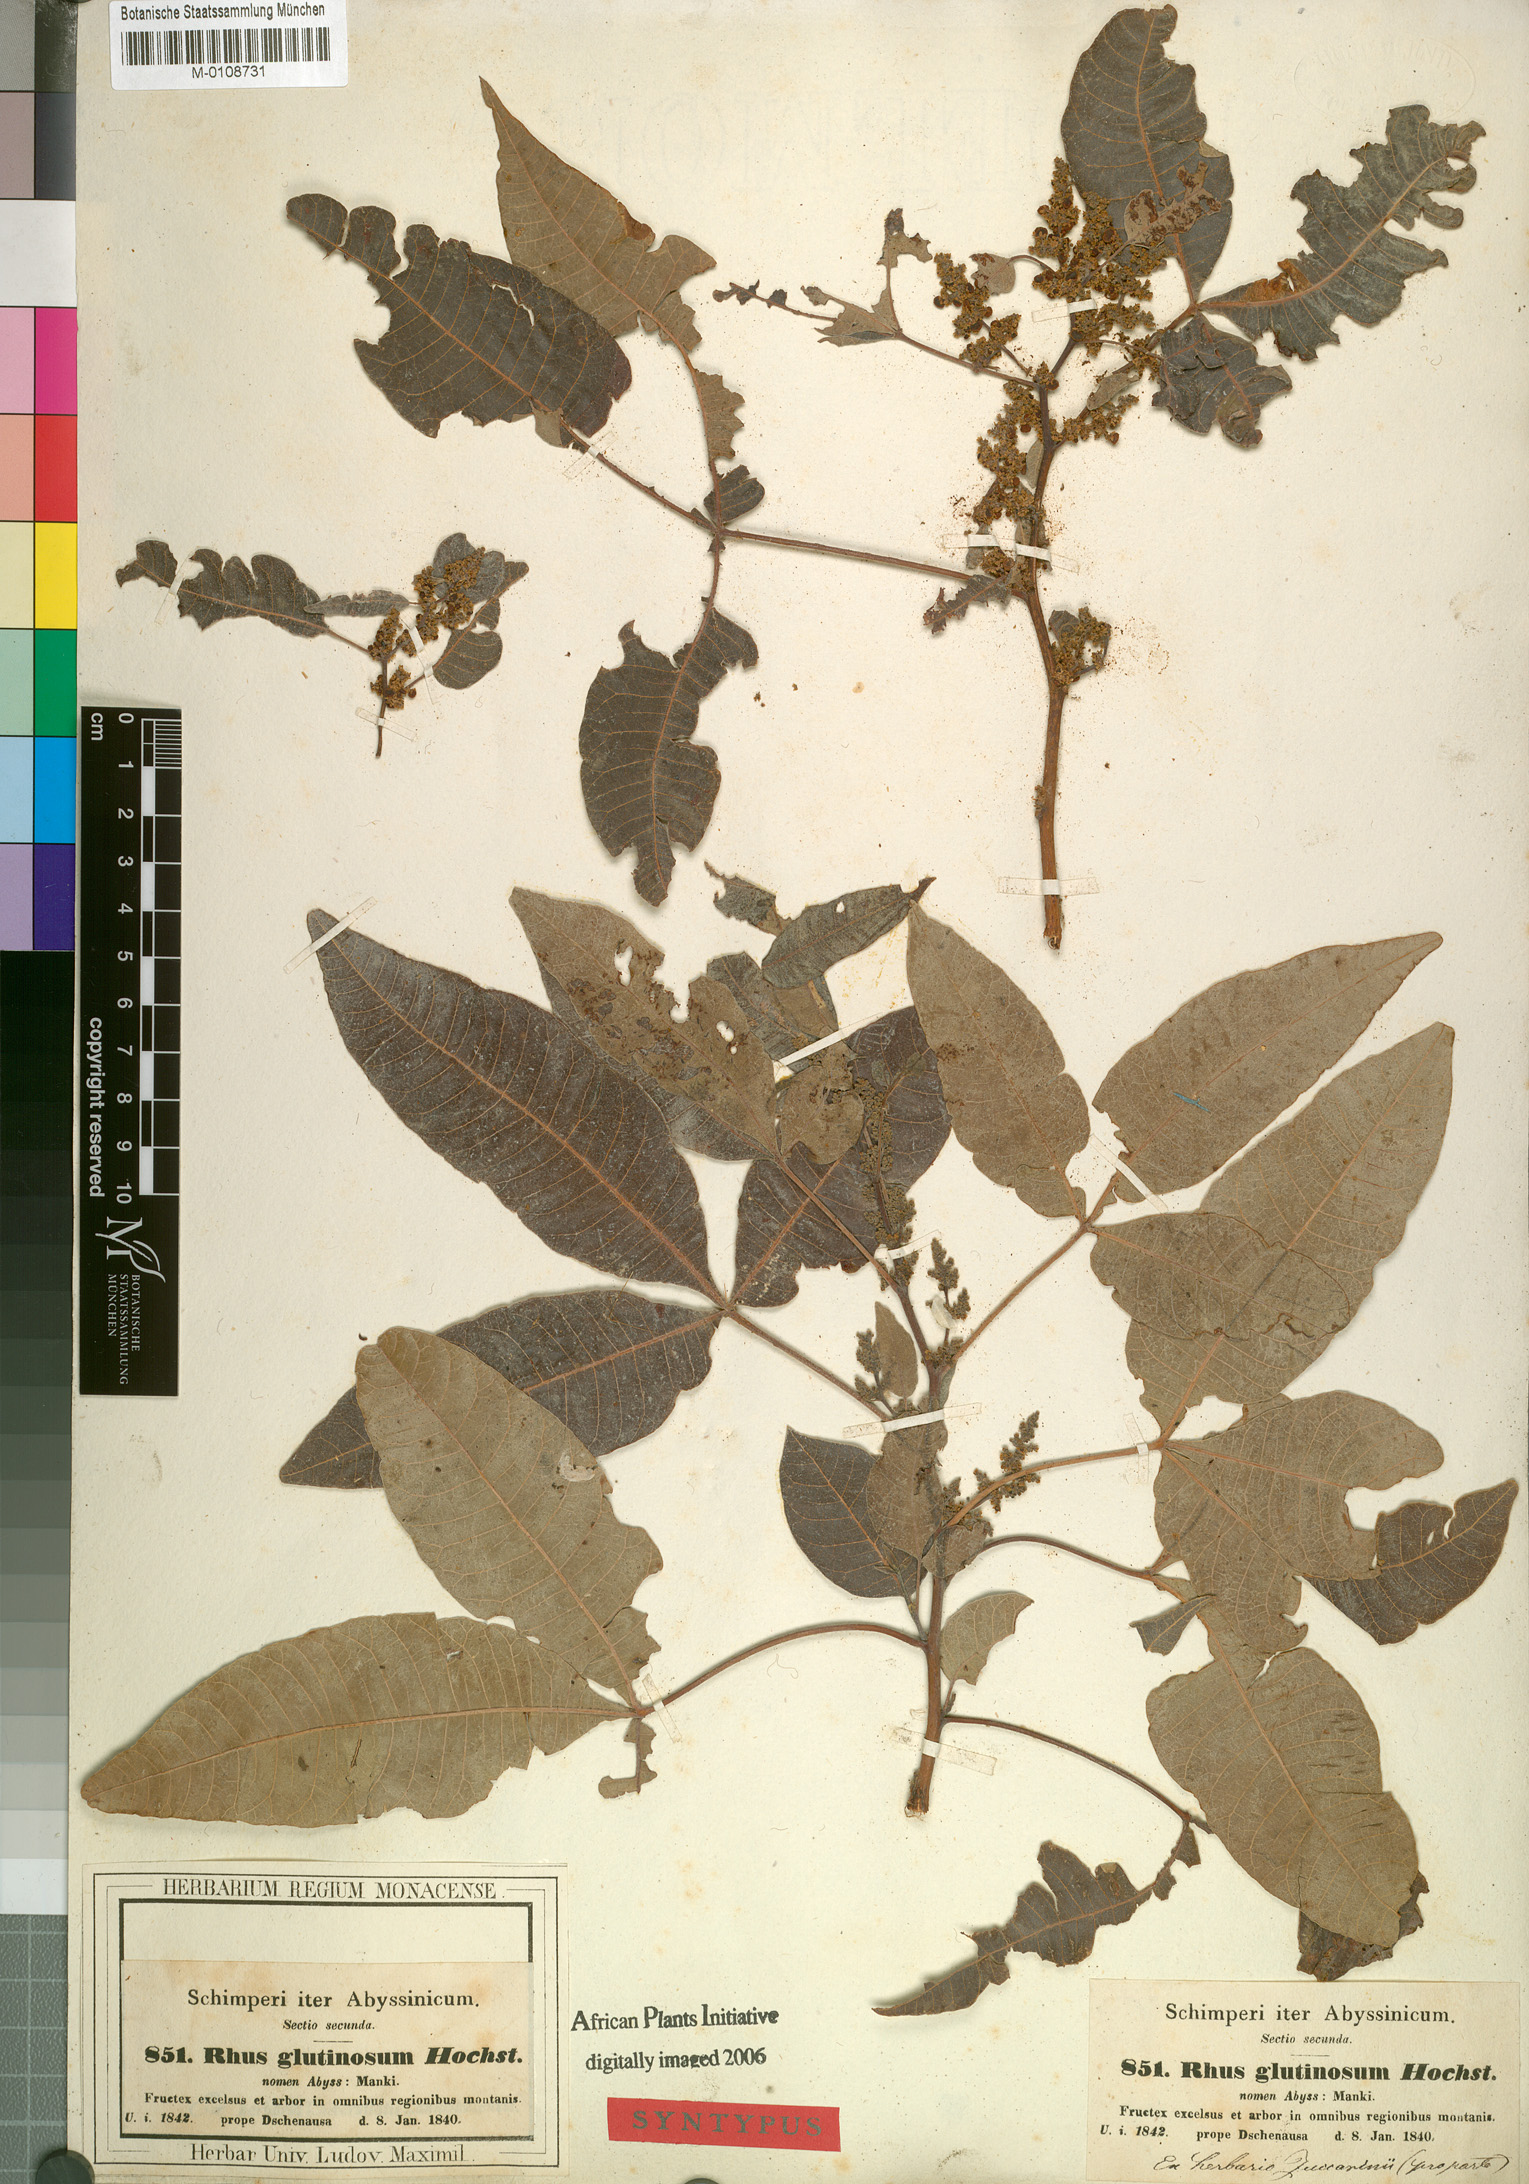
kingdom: Plantae
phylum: Tracheophyta
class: Magnoliopsida
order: Sapindales
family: Anacardiaceae
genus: Searsia
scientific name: Searsia glutinosa
